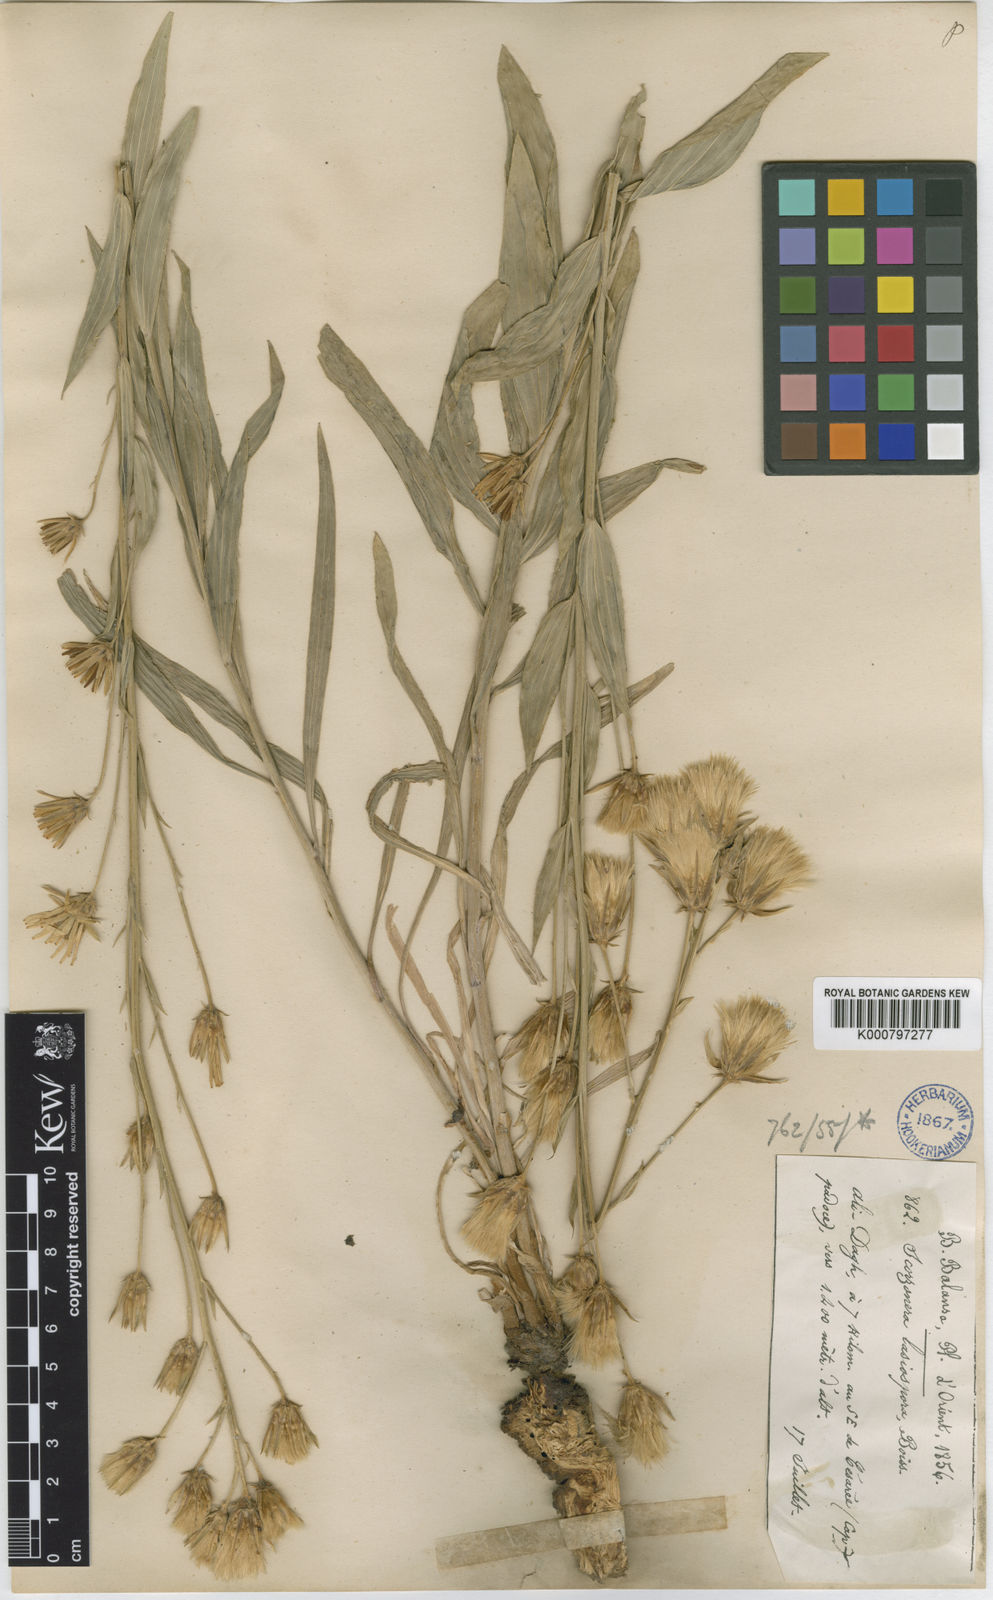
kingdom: Plantae
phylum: Tracheophyta
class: Magnoliopsida
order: Asterales
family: Asteraceae
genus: Guneria
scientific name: Guneria latifolia
